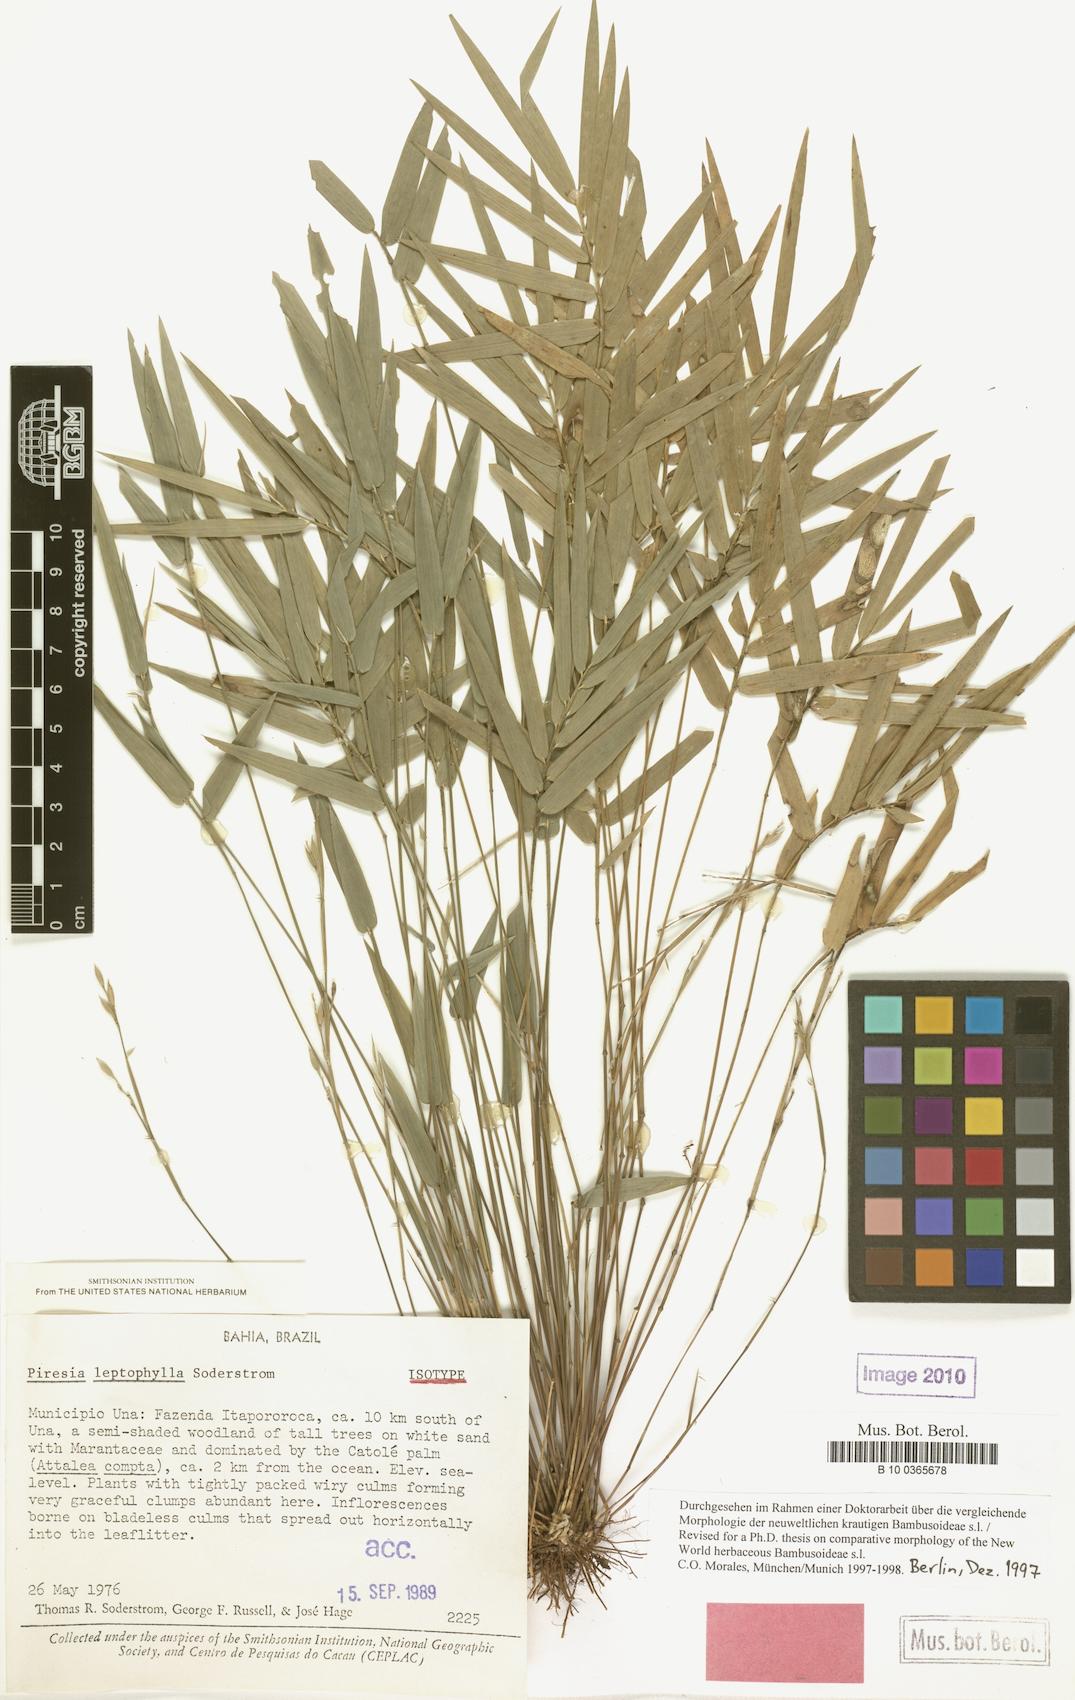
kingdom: Plantae
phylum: Tracheophyta
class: Liliopsida
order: Poales
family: Poaceae
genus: Piresia
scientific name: Piresia leptophylla
